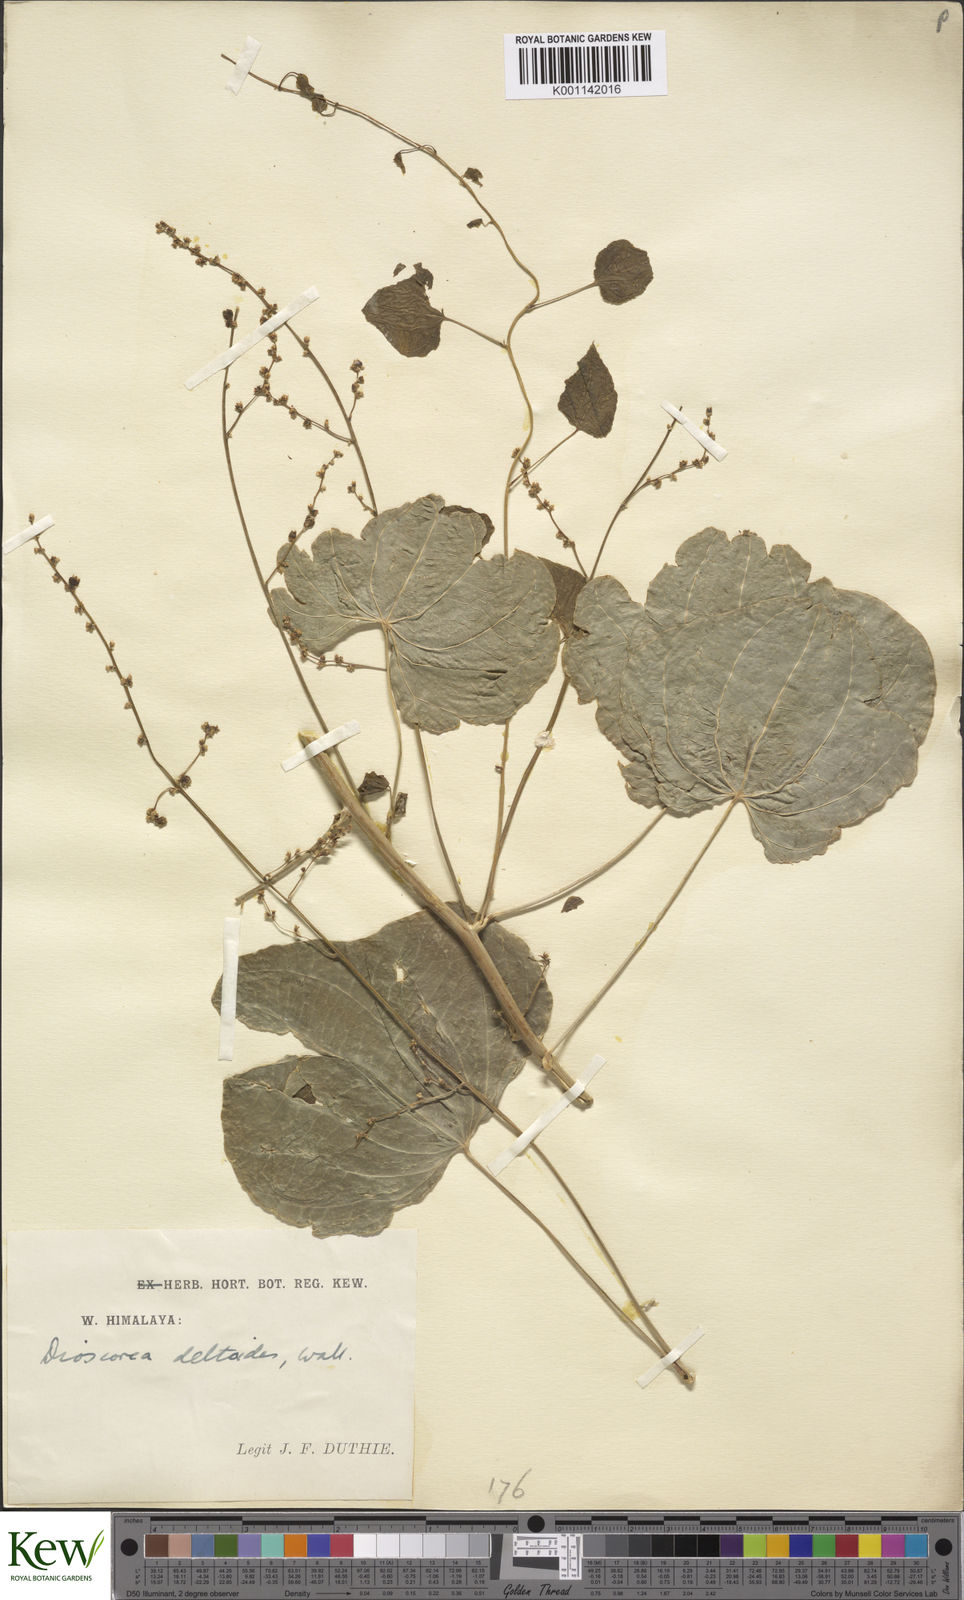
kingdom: Plantae
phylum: Tracheophyta
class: Liliopsida
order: Dioscoreales
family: Dioscoreaceae
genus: Dioscorea
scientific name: Dioscorea deltoidea
